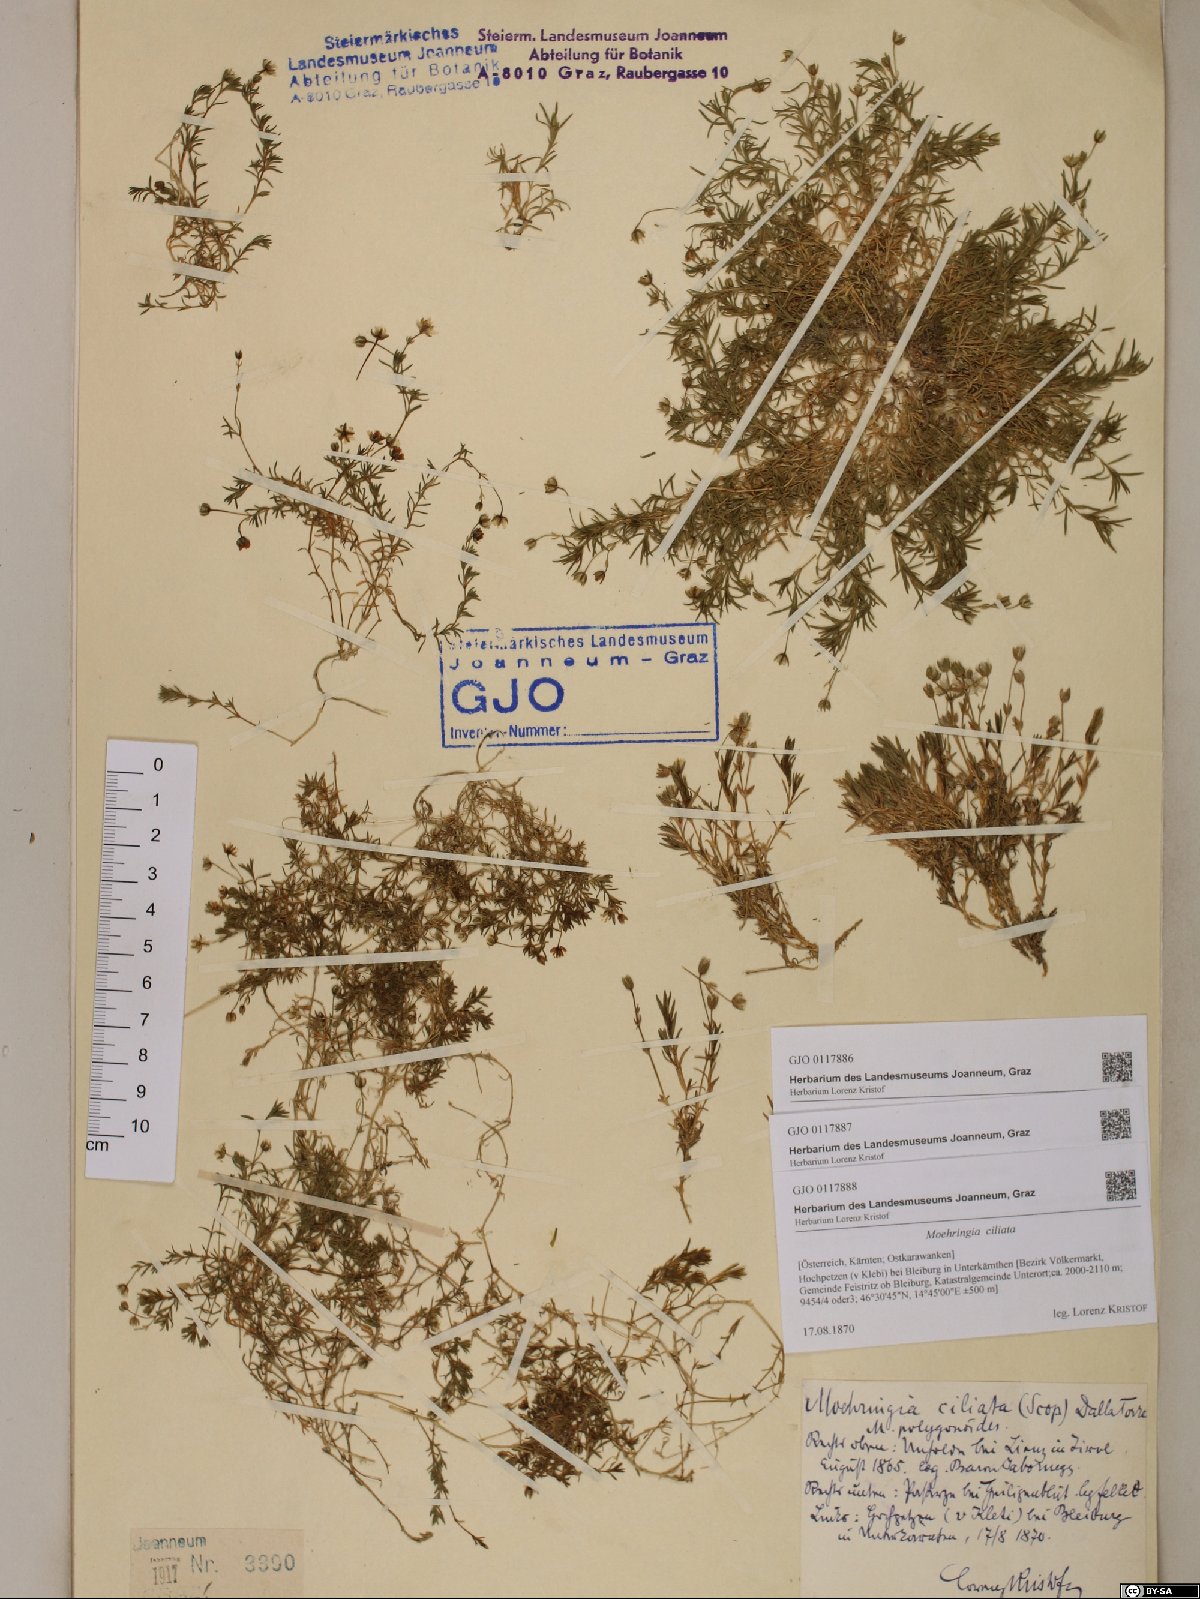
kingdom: Plantae
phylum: Tracheophyta
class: Magnoliopsida
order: Caryophyllales
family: Caryophyllaceae
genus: Moehringia
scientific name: Moehringia ciliata
